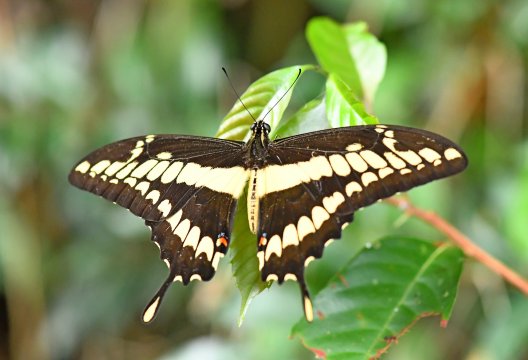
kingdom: Animalia
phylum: Arthropoda
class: Insecta
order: Lepidoptera
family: Papilionidae
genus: Papilio
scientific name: Papilio thoas
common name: Thoas Swallowtail
